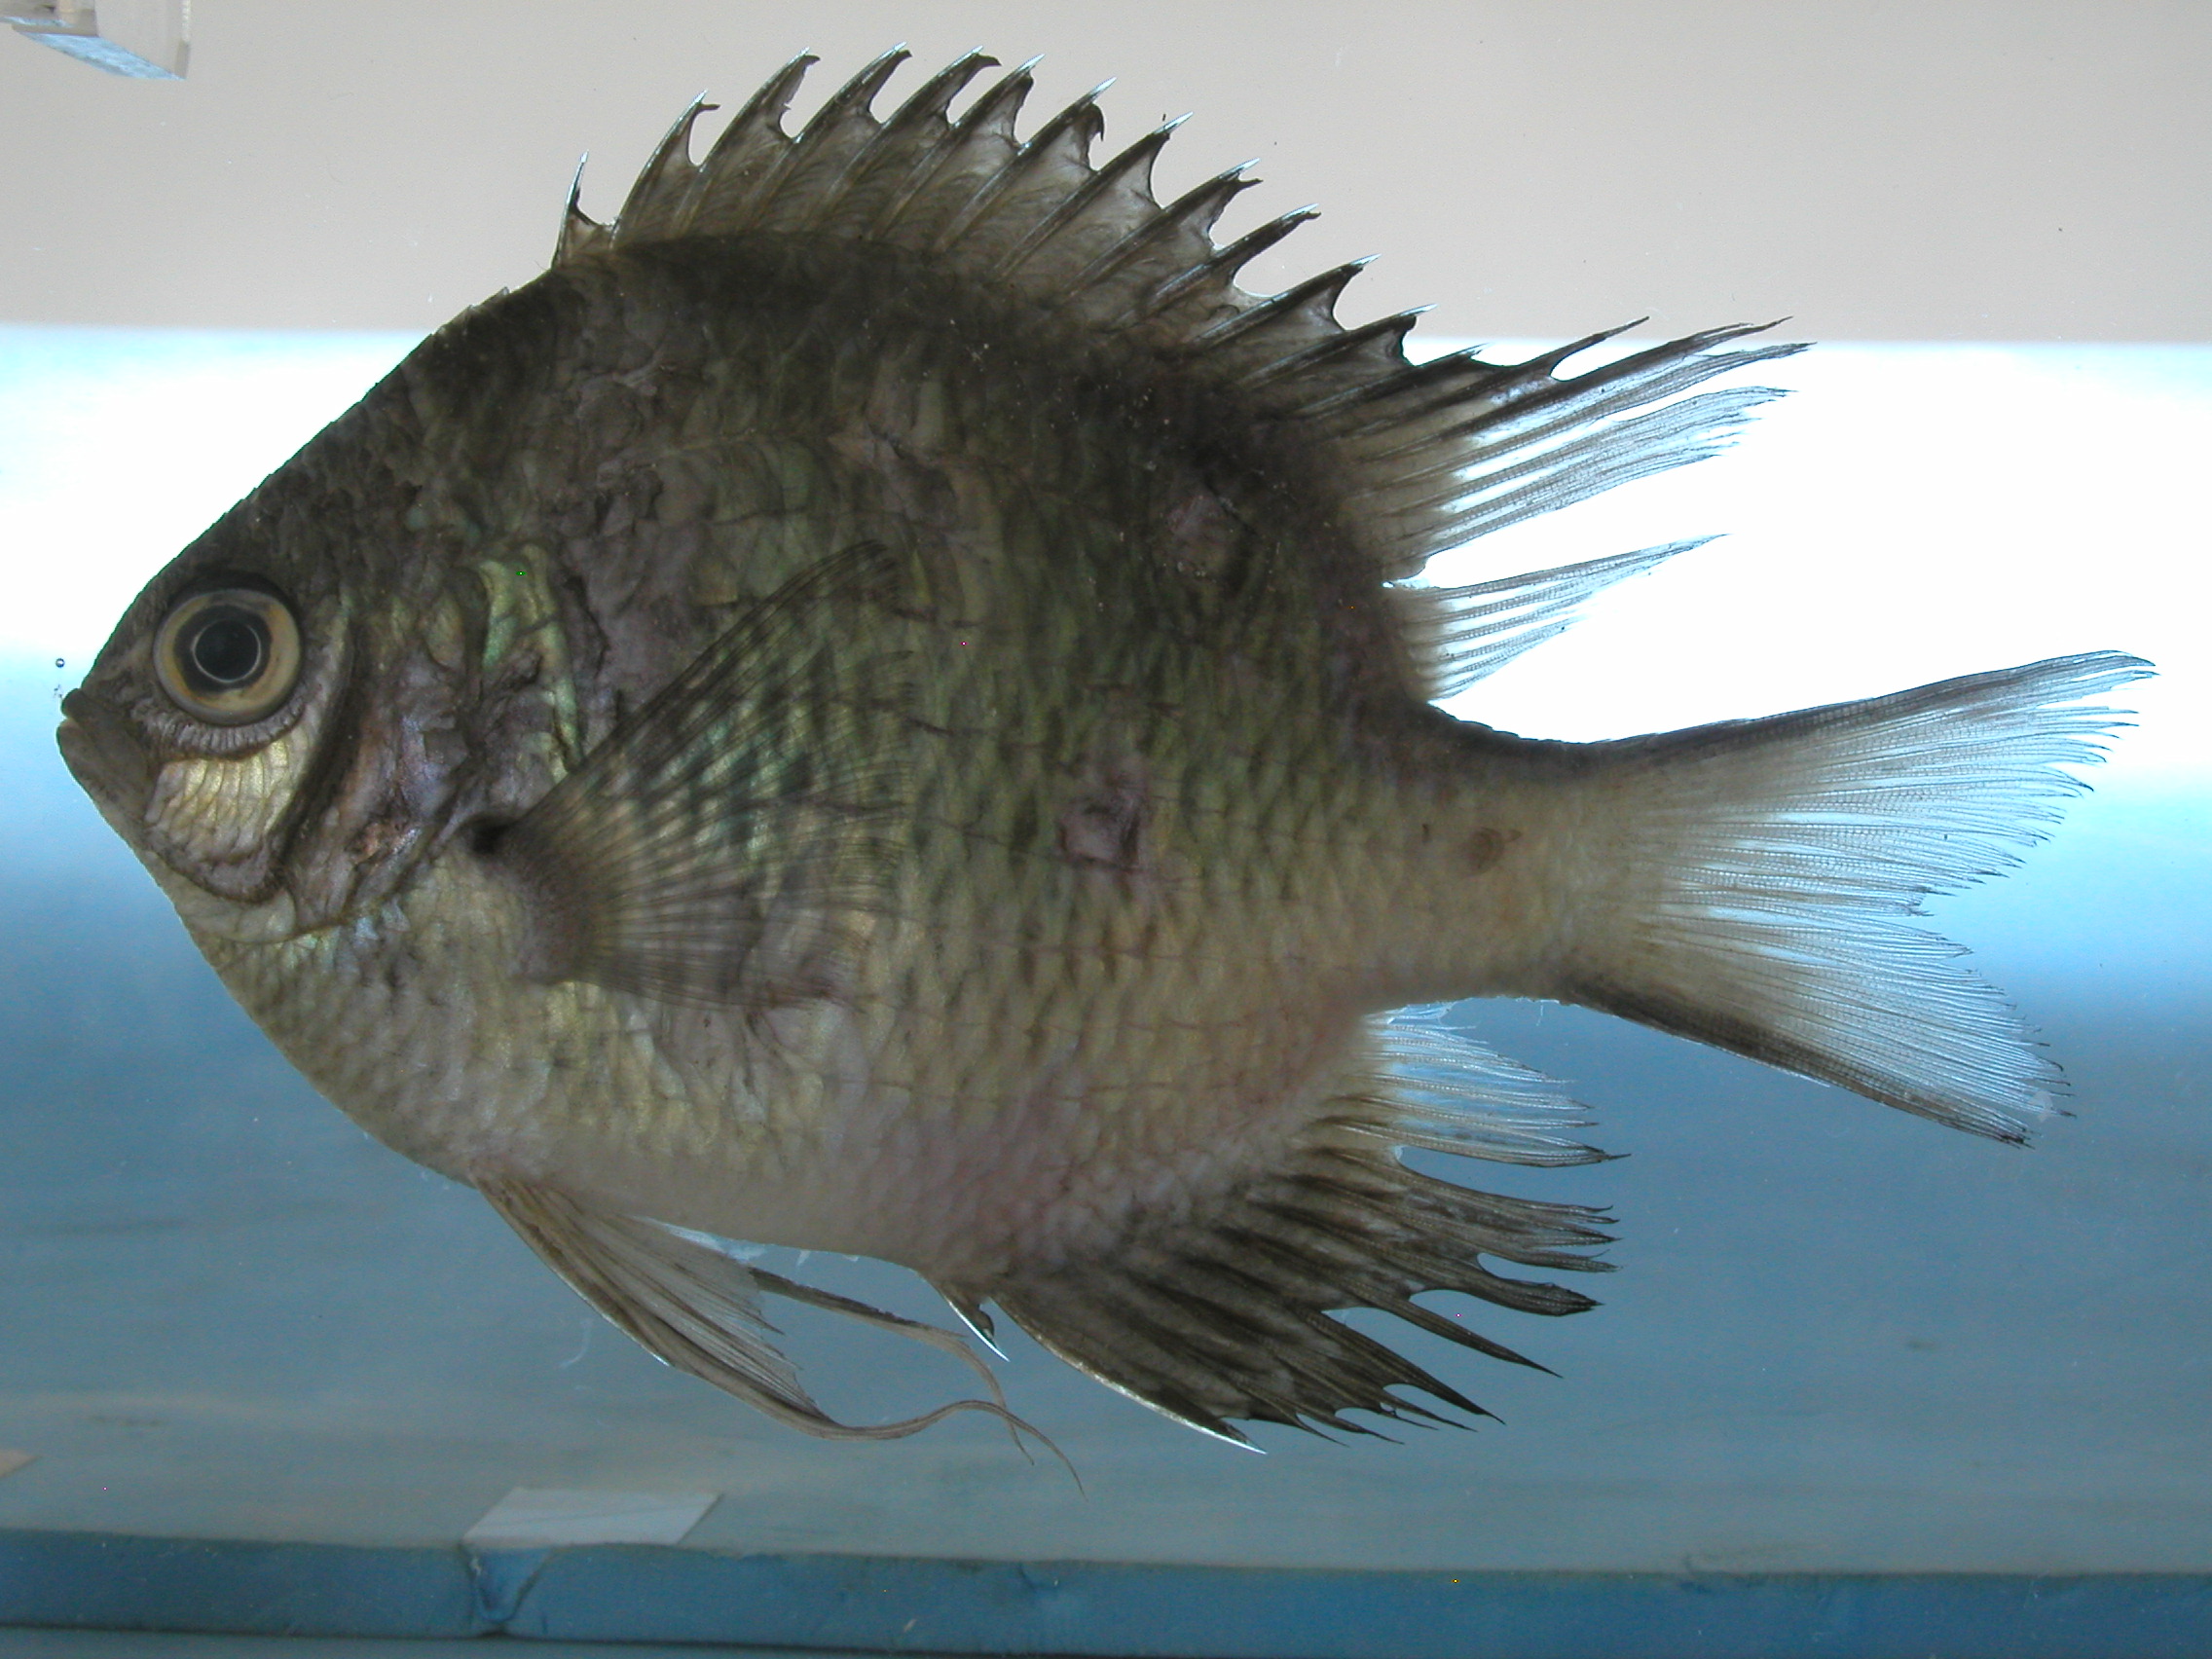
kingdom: Animalia
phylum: Chordata
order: Perciformes
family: Pomacentridae
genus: Amblyglyphidodon
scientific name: Amblyglyphidodon indicus
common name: Maldives damselfish
